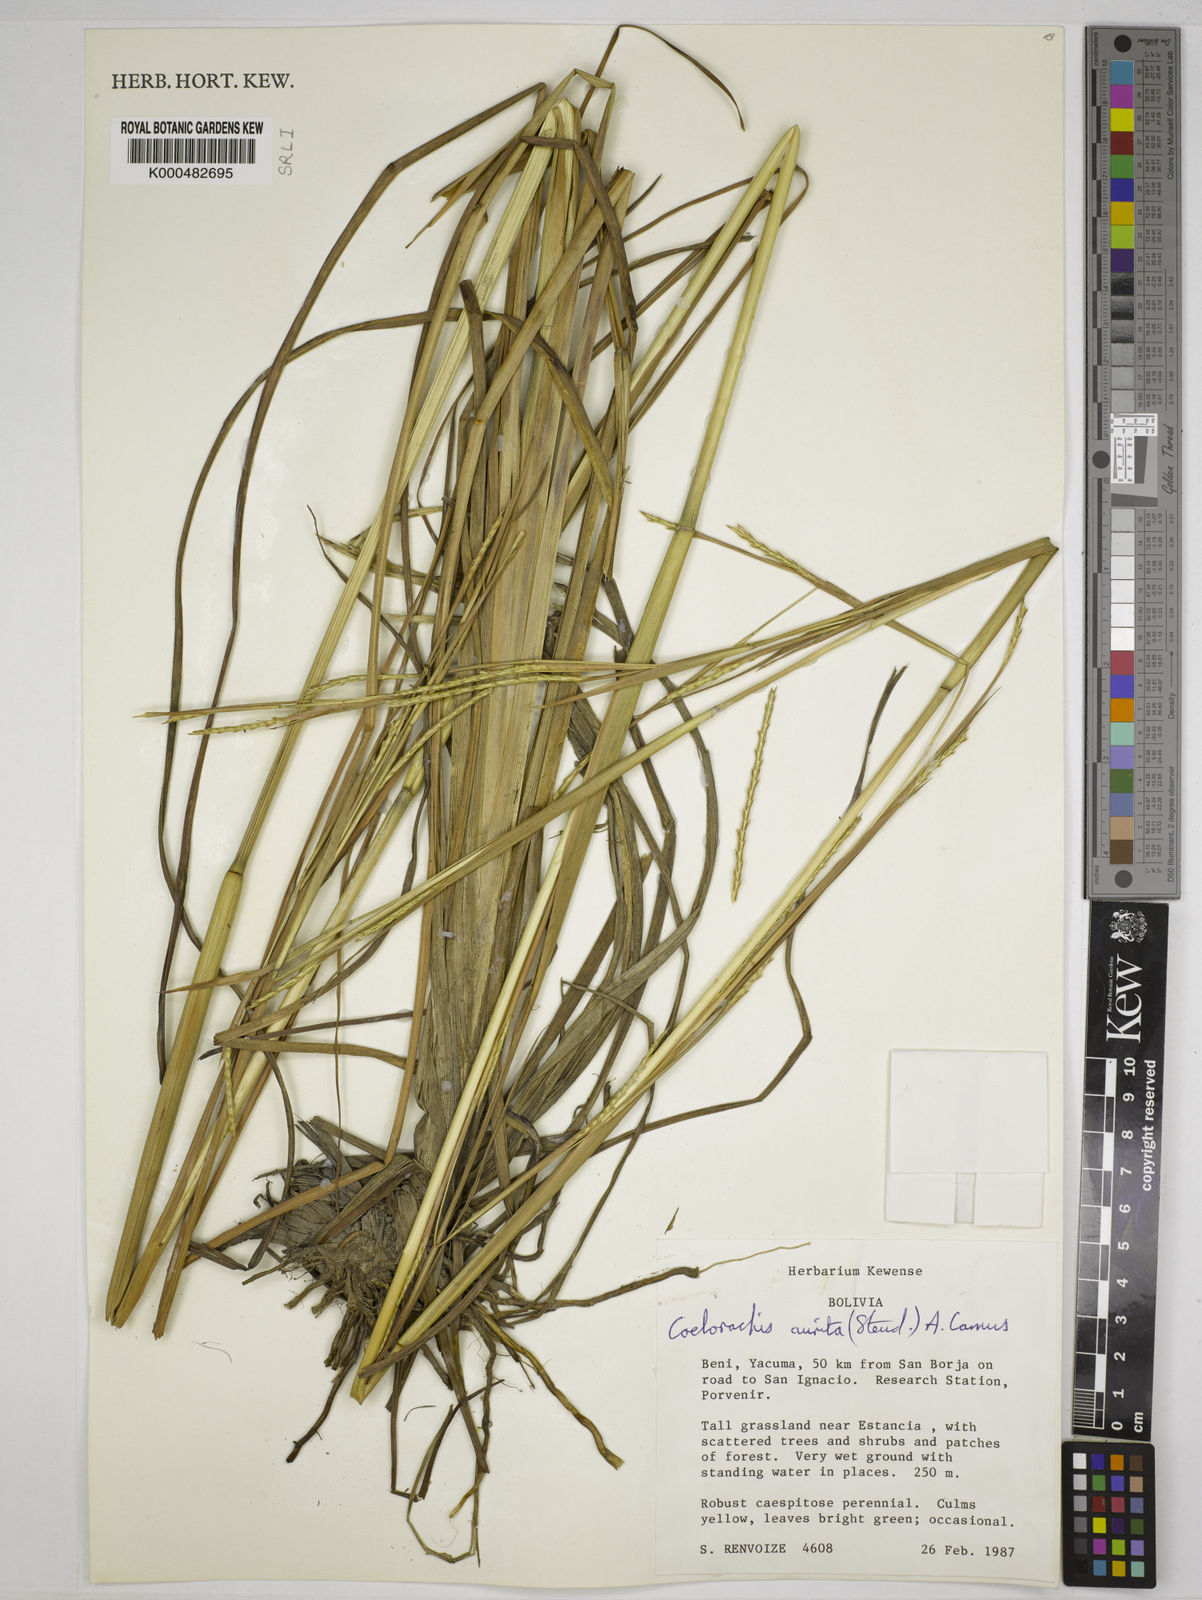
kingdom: Plantae
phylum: Tracheophyta
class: Liliopsida
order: Poales
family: Poaceae
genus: Rottboellia
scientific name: Rottboellia aurita
